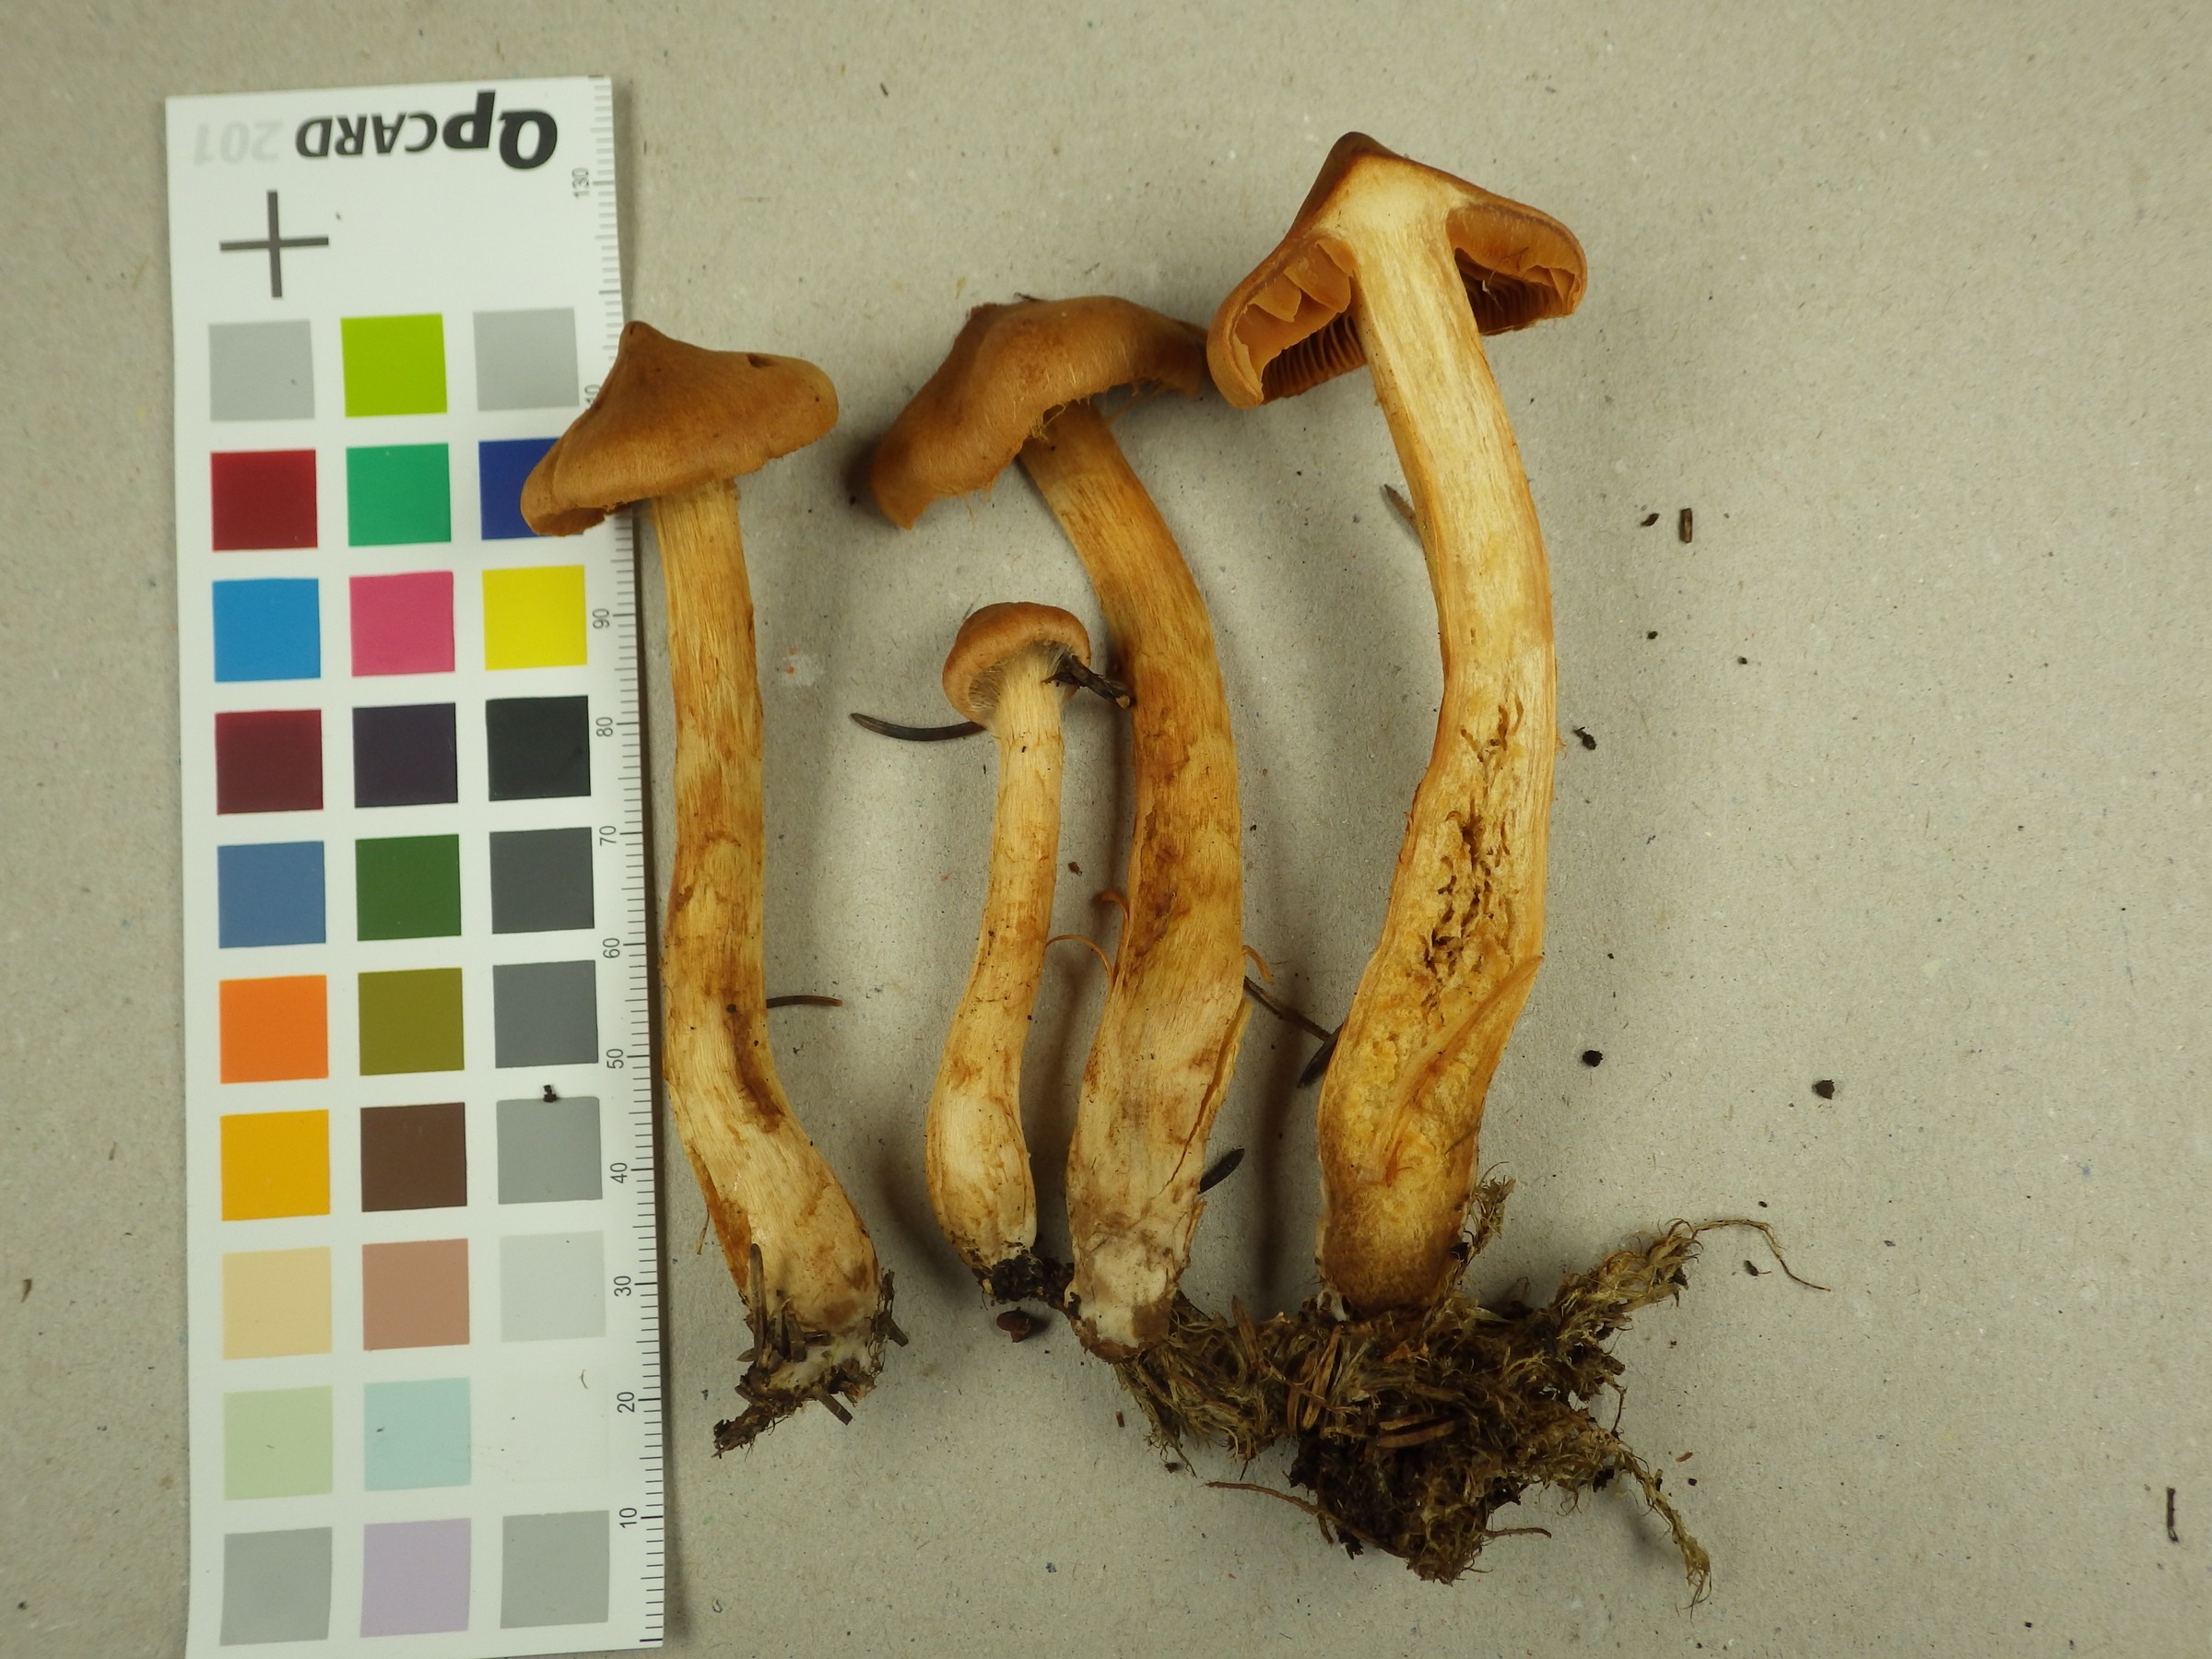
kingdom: Fungi
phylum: Basidiomycota
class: Agaricomycetes
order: Agaricales
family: Cortinariaceae
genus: Cortinarius
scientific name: Cortinarius rubellus
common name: Deadly webcap
